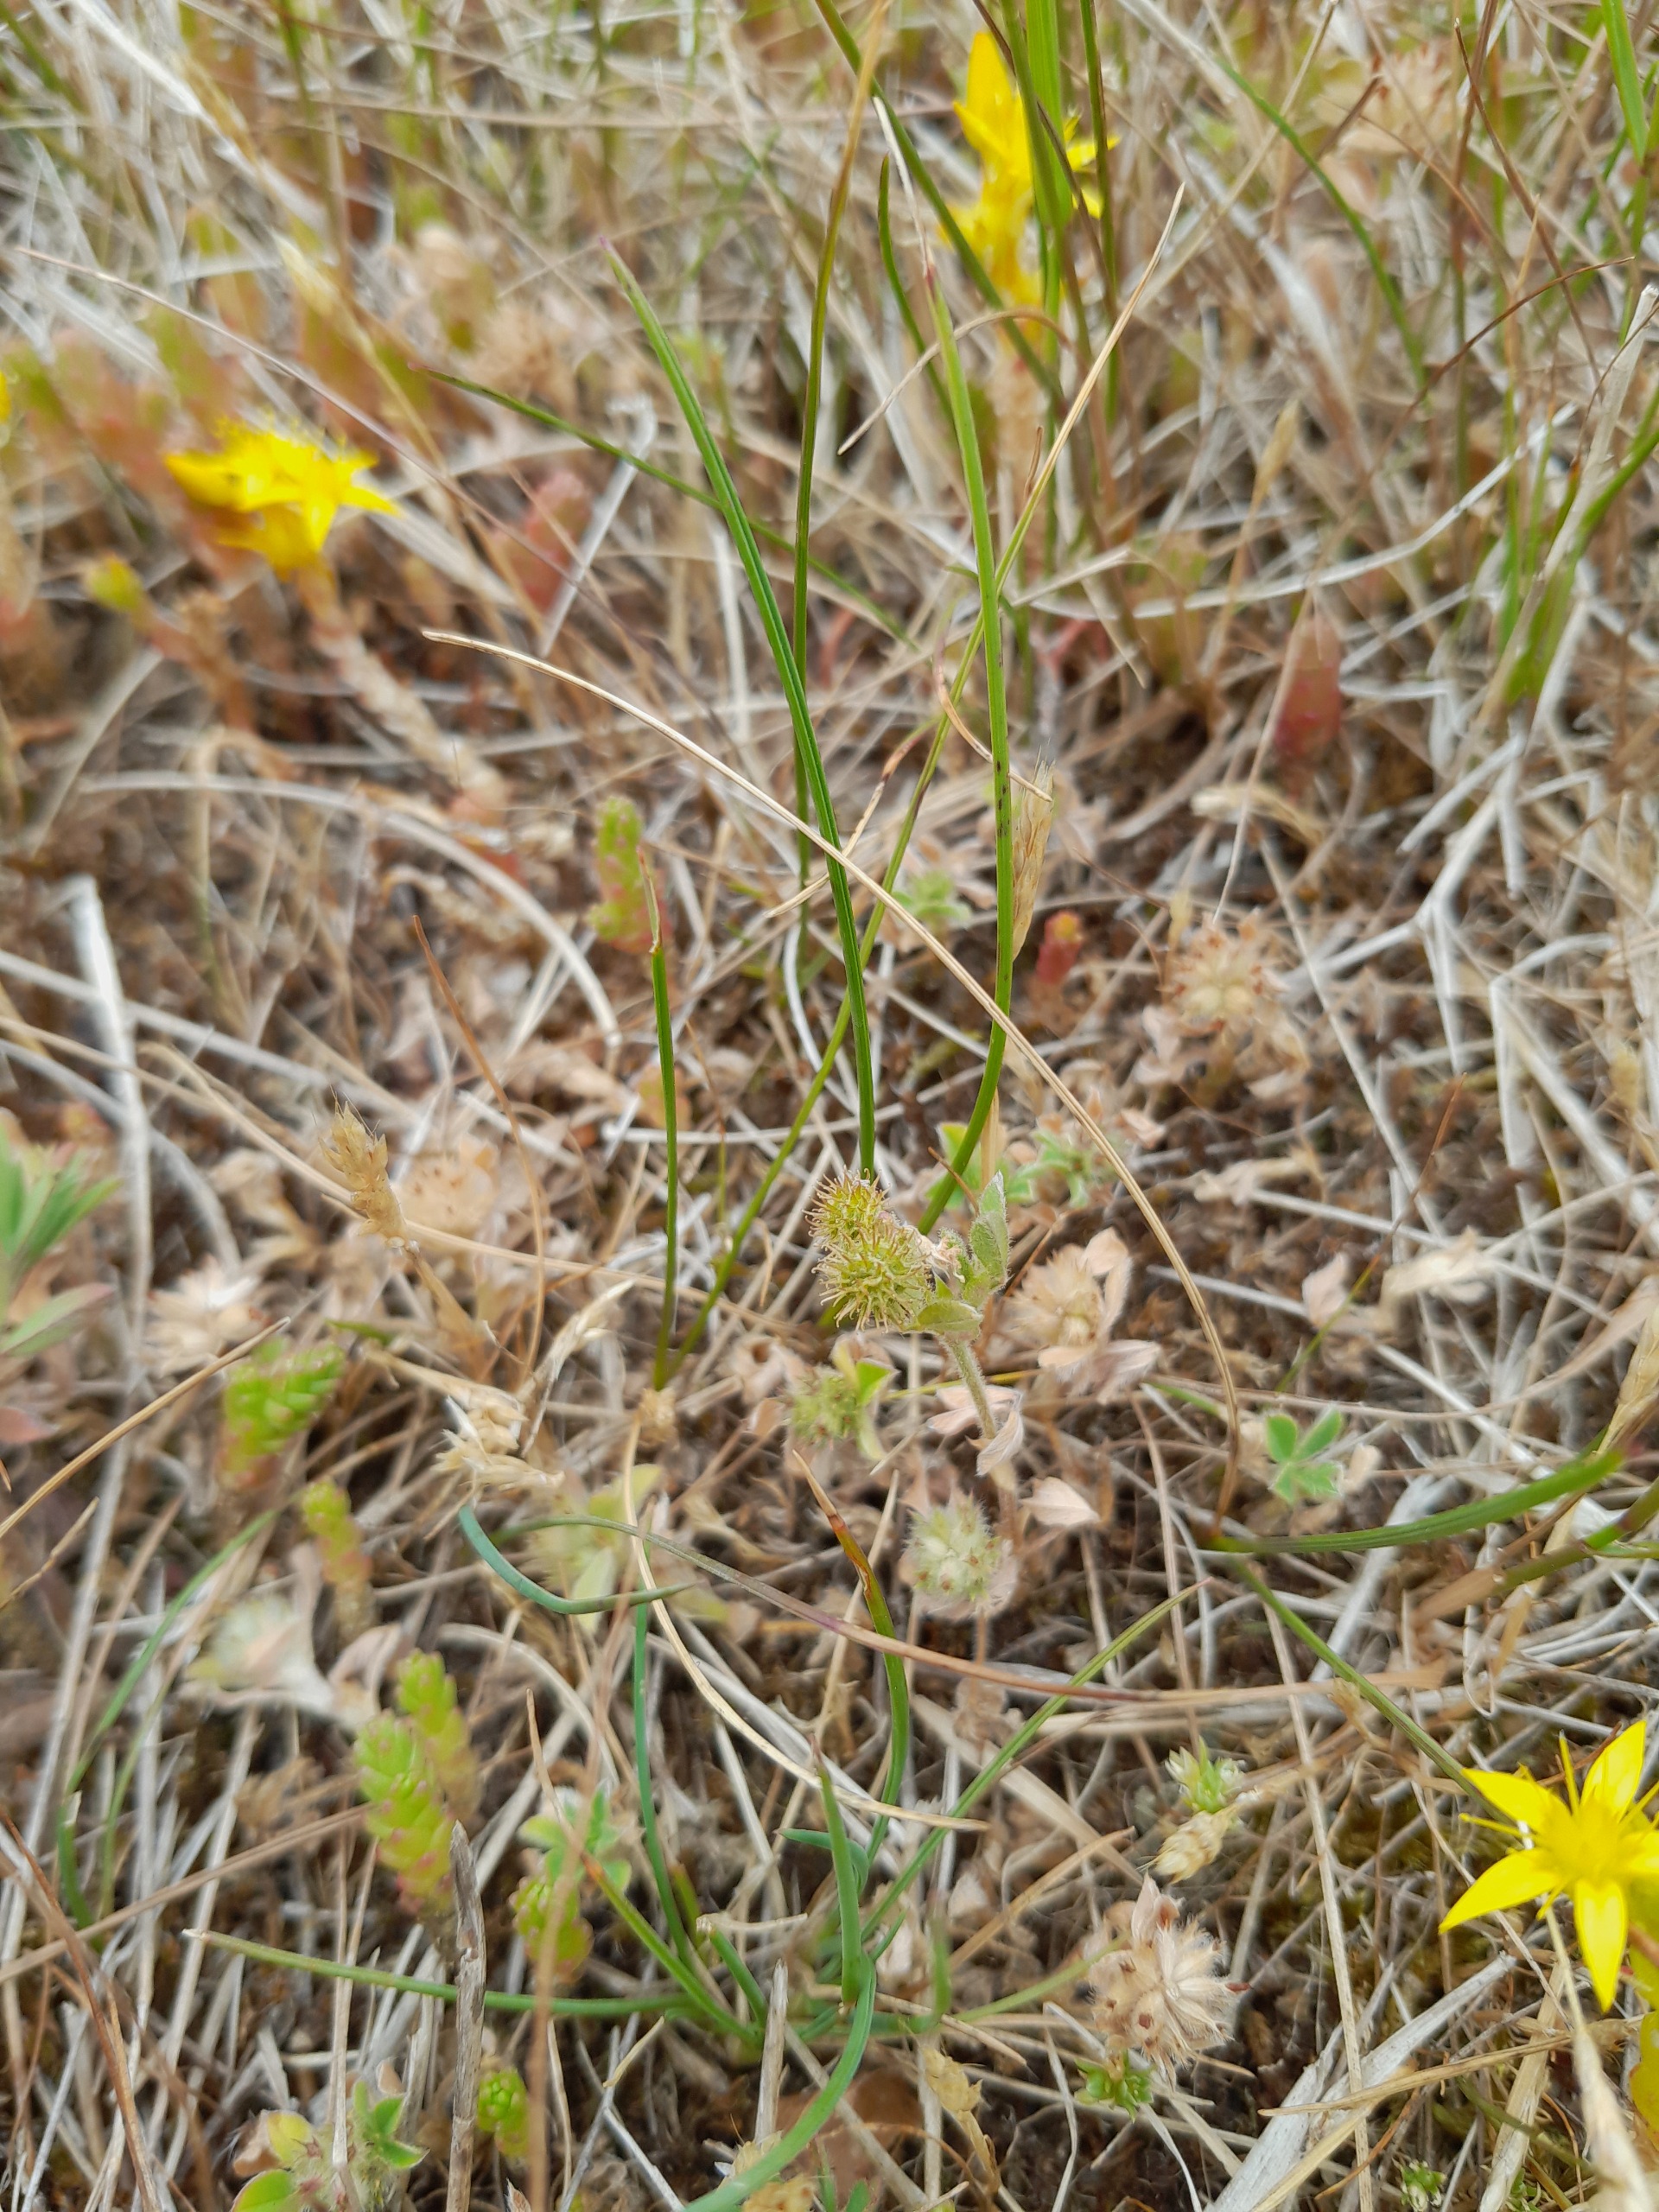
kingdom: Plantae
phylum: Tracheophyta
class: Magnoliopsida
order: Fabales
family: Fabaceae
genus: Medicago
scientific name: Medicago minima
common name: Liden sneglebælg
